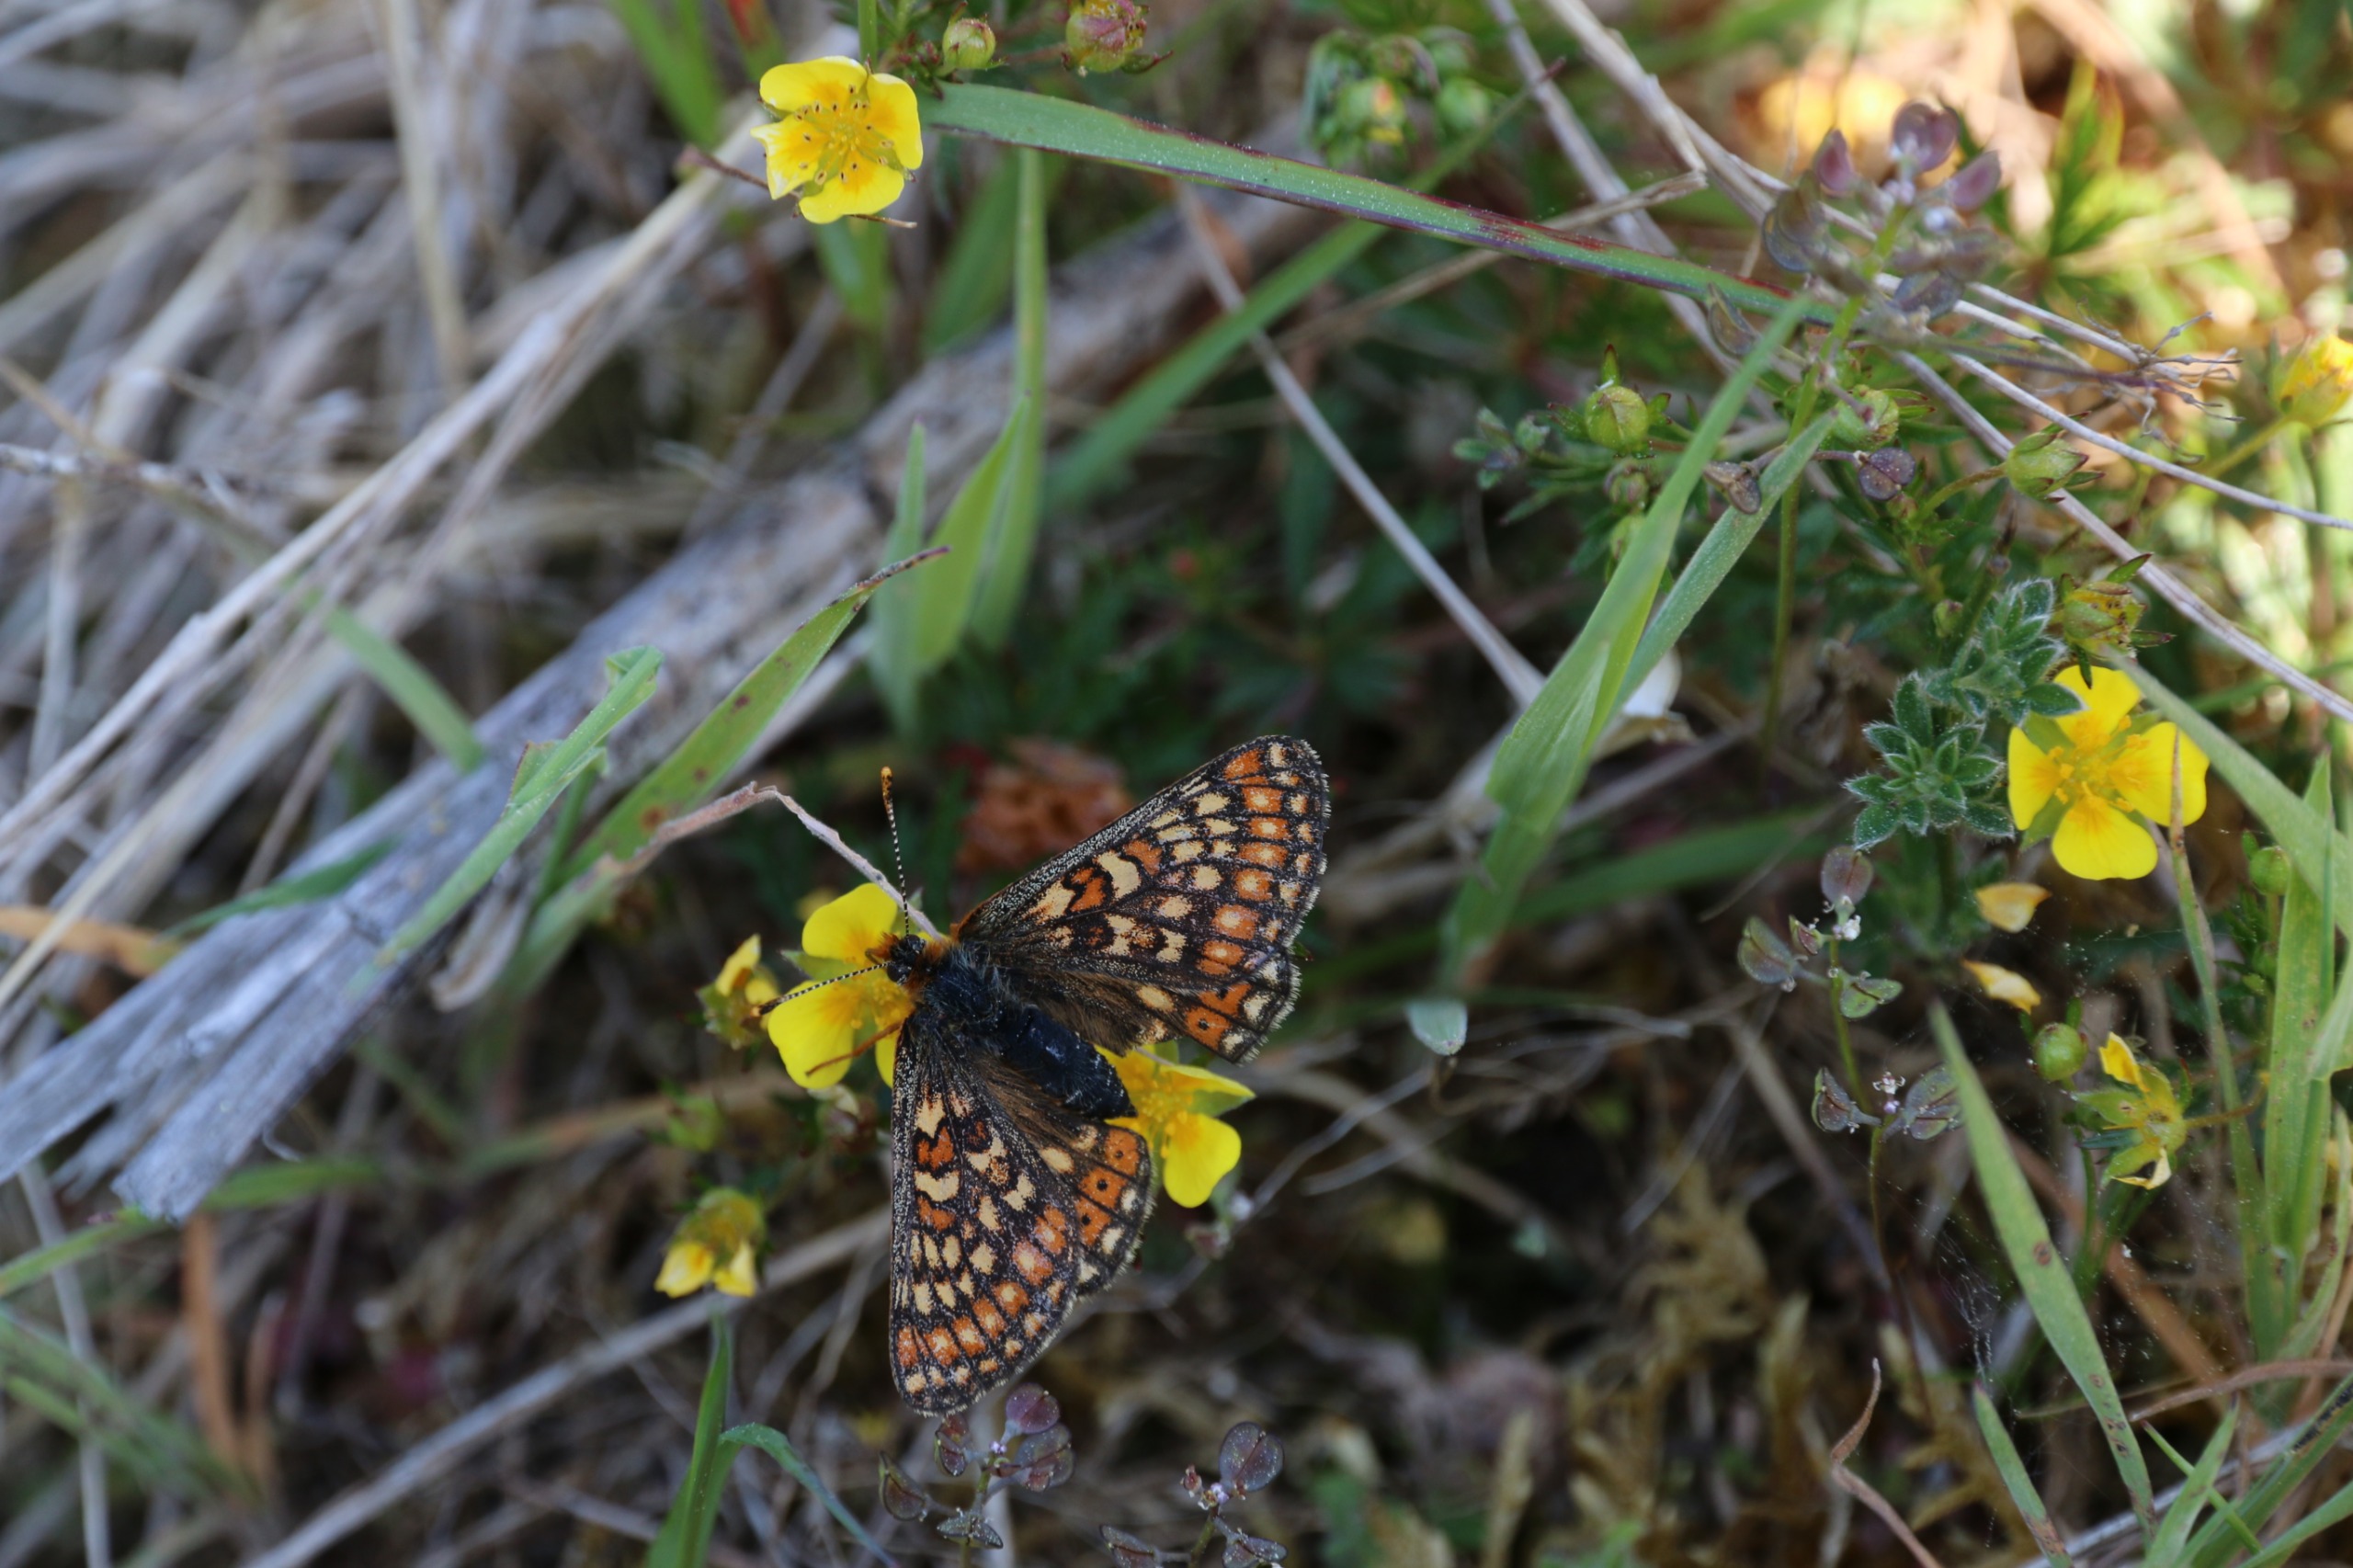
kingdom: Animalia
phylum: Arthropoda
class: Insecta
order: Lepidoptera
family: Nymphalidae
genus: Euphydryas
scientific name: Euphydryas aurinia
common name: Hedepletvinge
